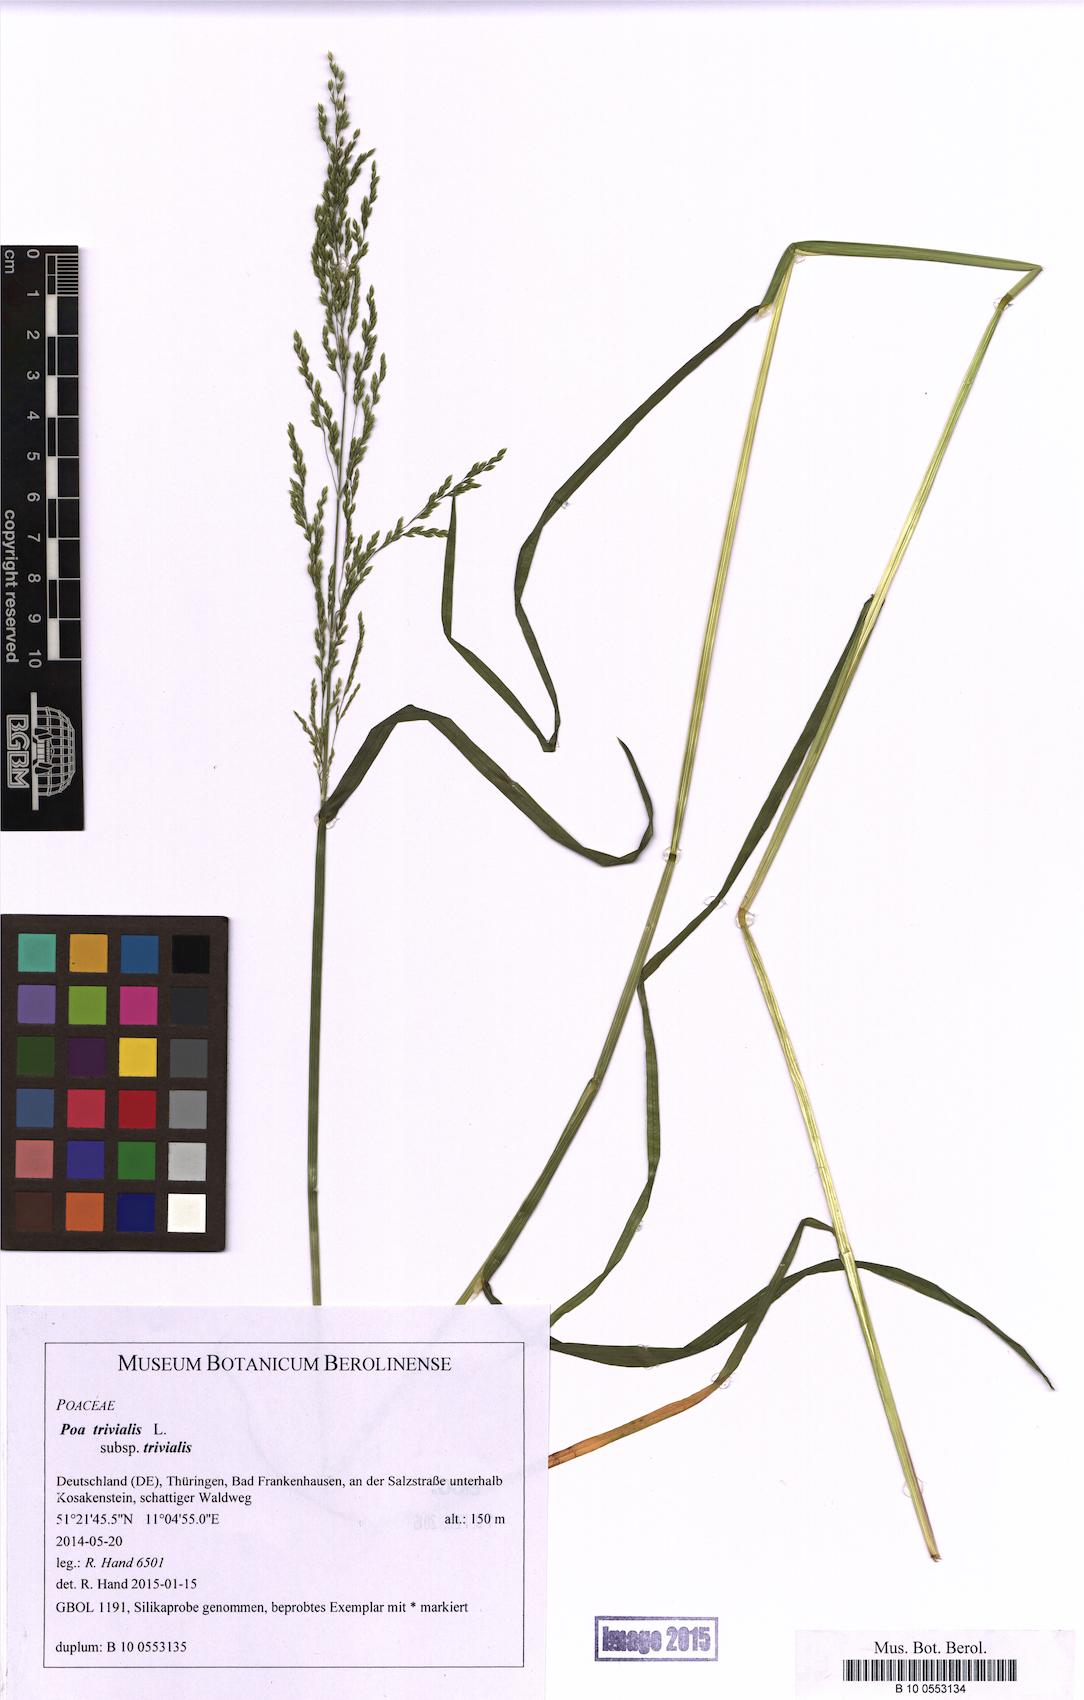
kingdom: Plantae
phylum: Tracheophyta
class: Liliopsida
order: Poales
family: Poaceae
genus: Poa
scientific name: Poa trivialis
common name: Rough bluegrass
